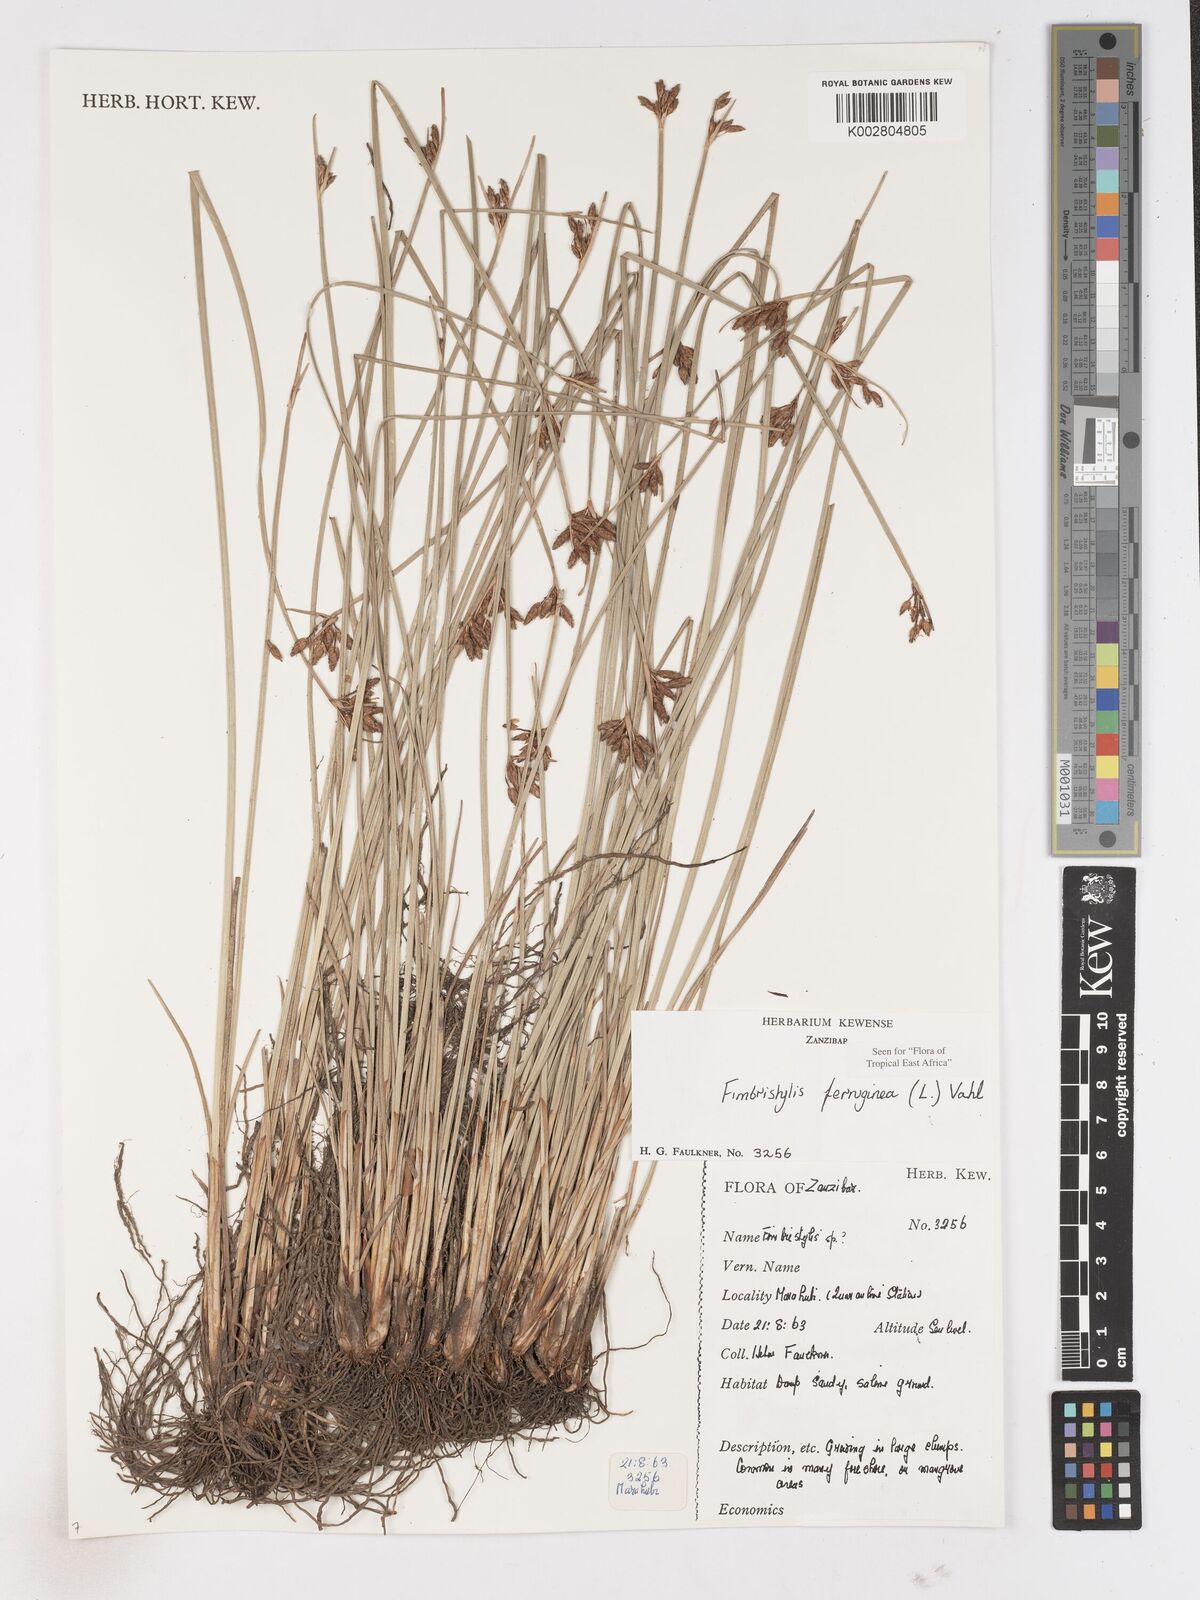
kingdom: Plantae
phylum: Tracheophyta
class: Liliopsida
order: Poales
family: Cyperaceae
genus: Fimbristylis
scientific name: Fimbristylis ferruginea
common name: West indian fimbry
